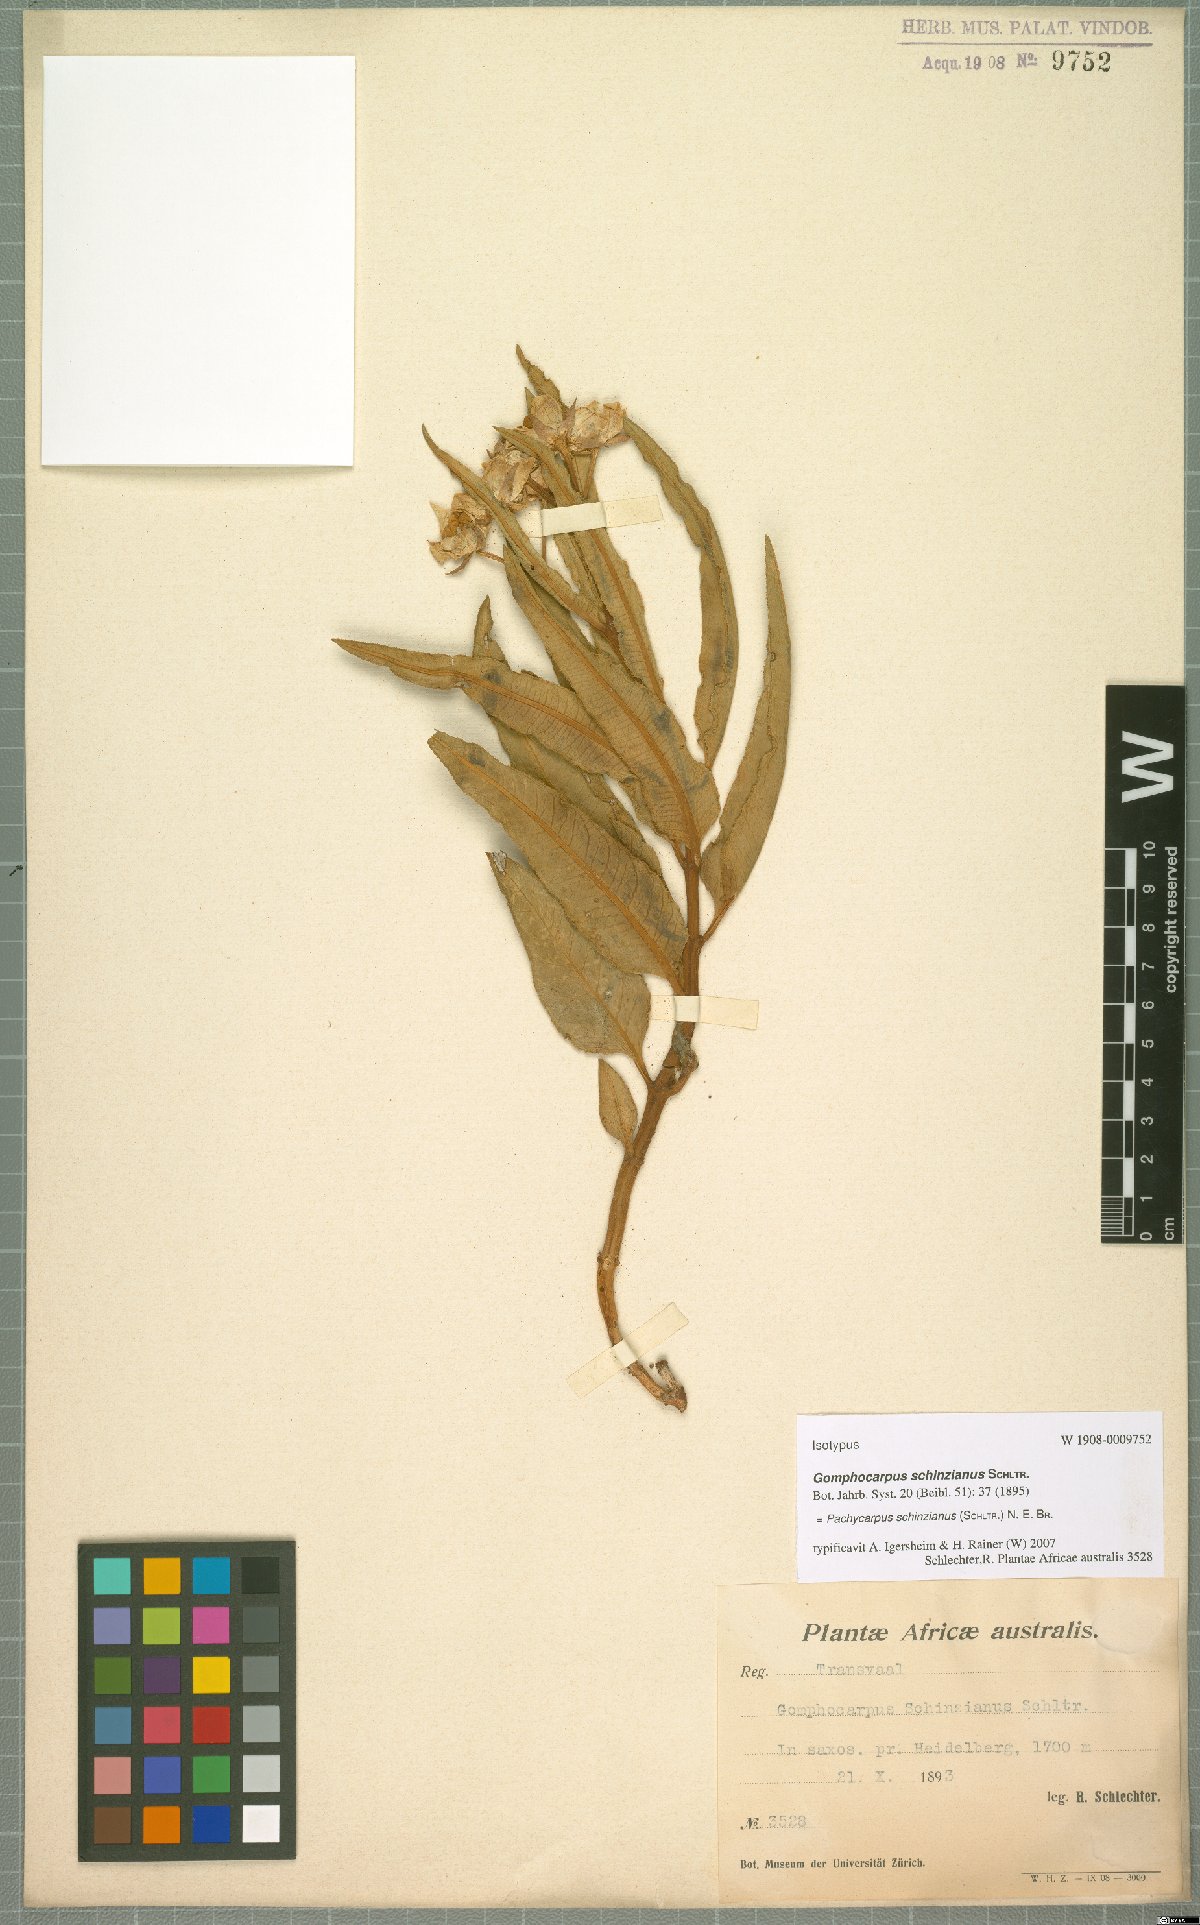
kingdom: Plantae
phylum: Tracheophyta
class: Magnoliopsida
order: Gentianales
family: Apocynaceae
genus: Pachycarpus
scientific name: Pachycarpus schinzianus
